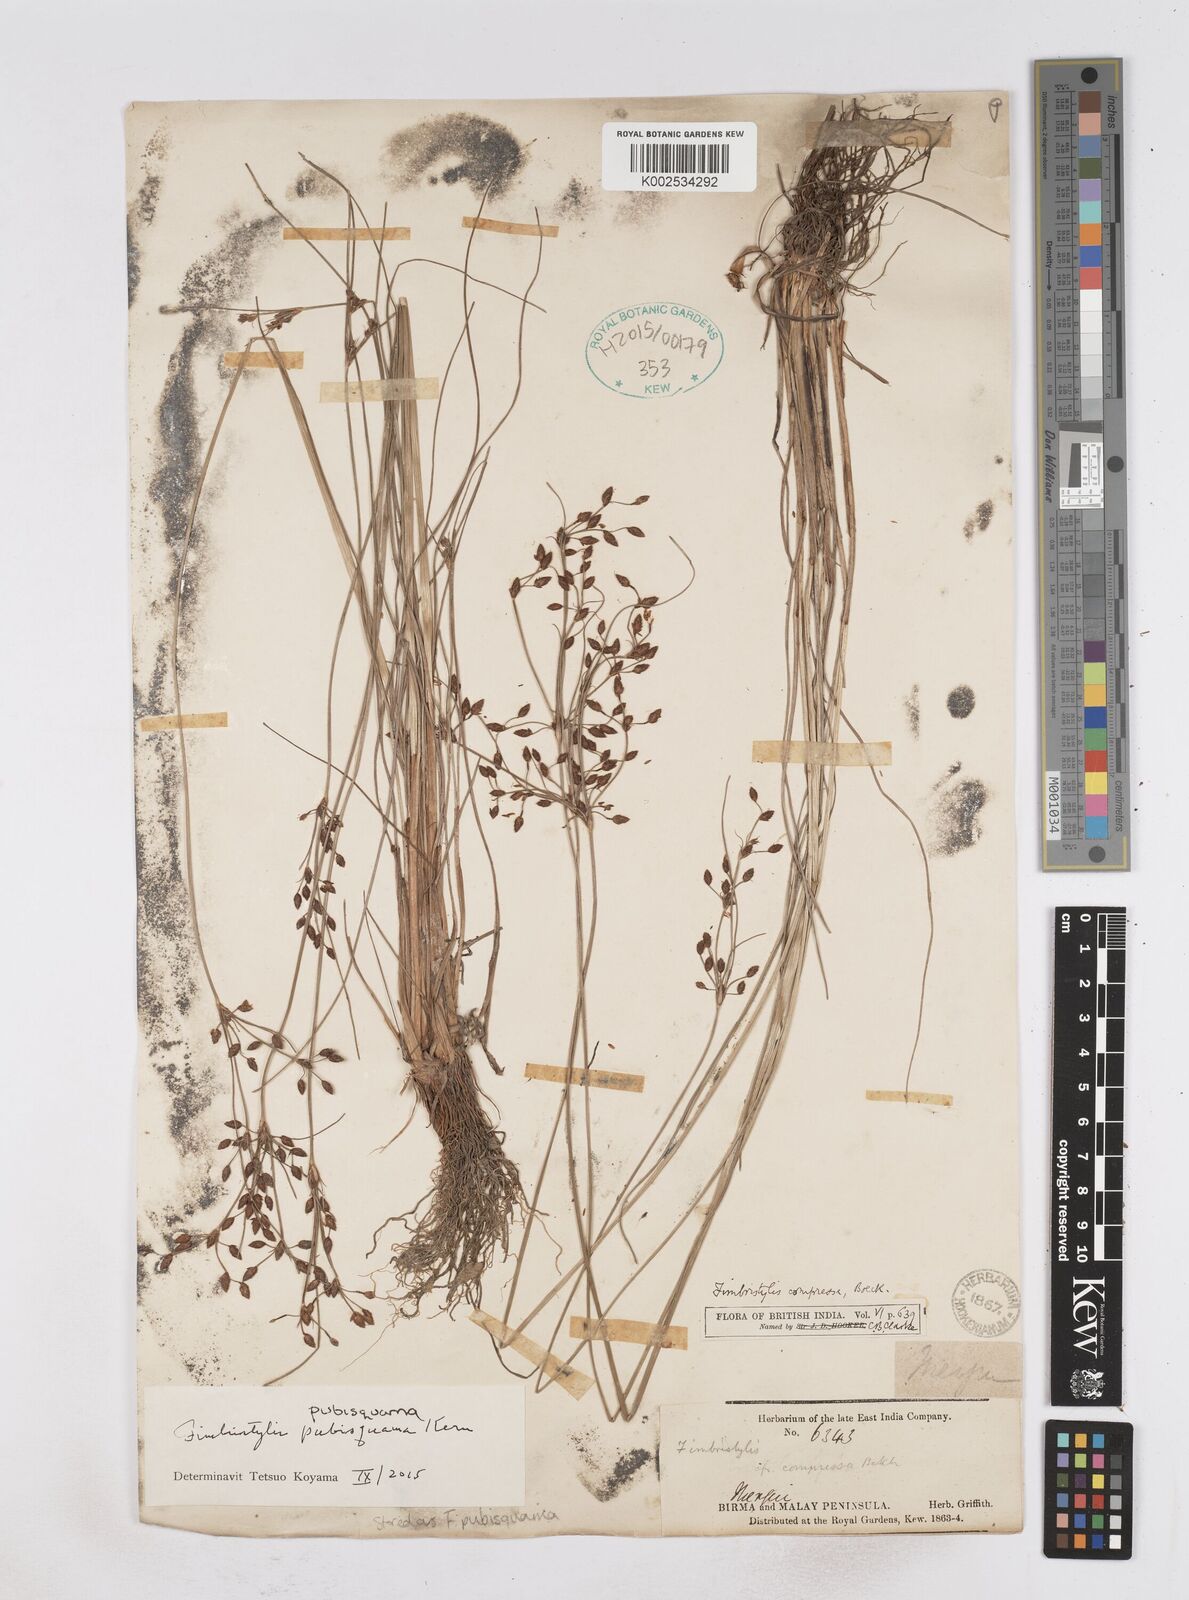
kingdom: Plantae
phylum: Tracheophyta
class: Liliopsida
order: Poales
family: Cyperaceae
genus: Fimbristylis
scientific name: Fimbristylis pubisquama
